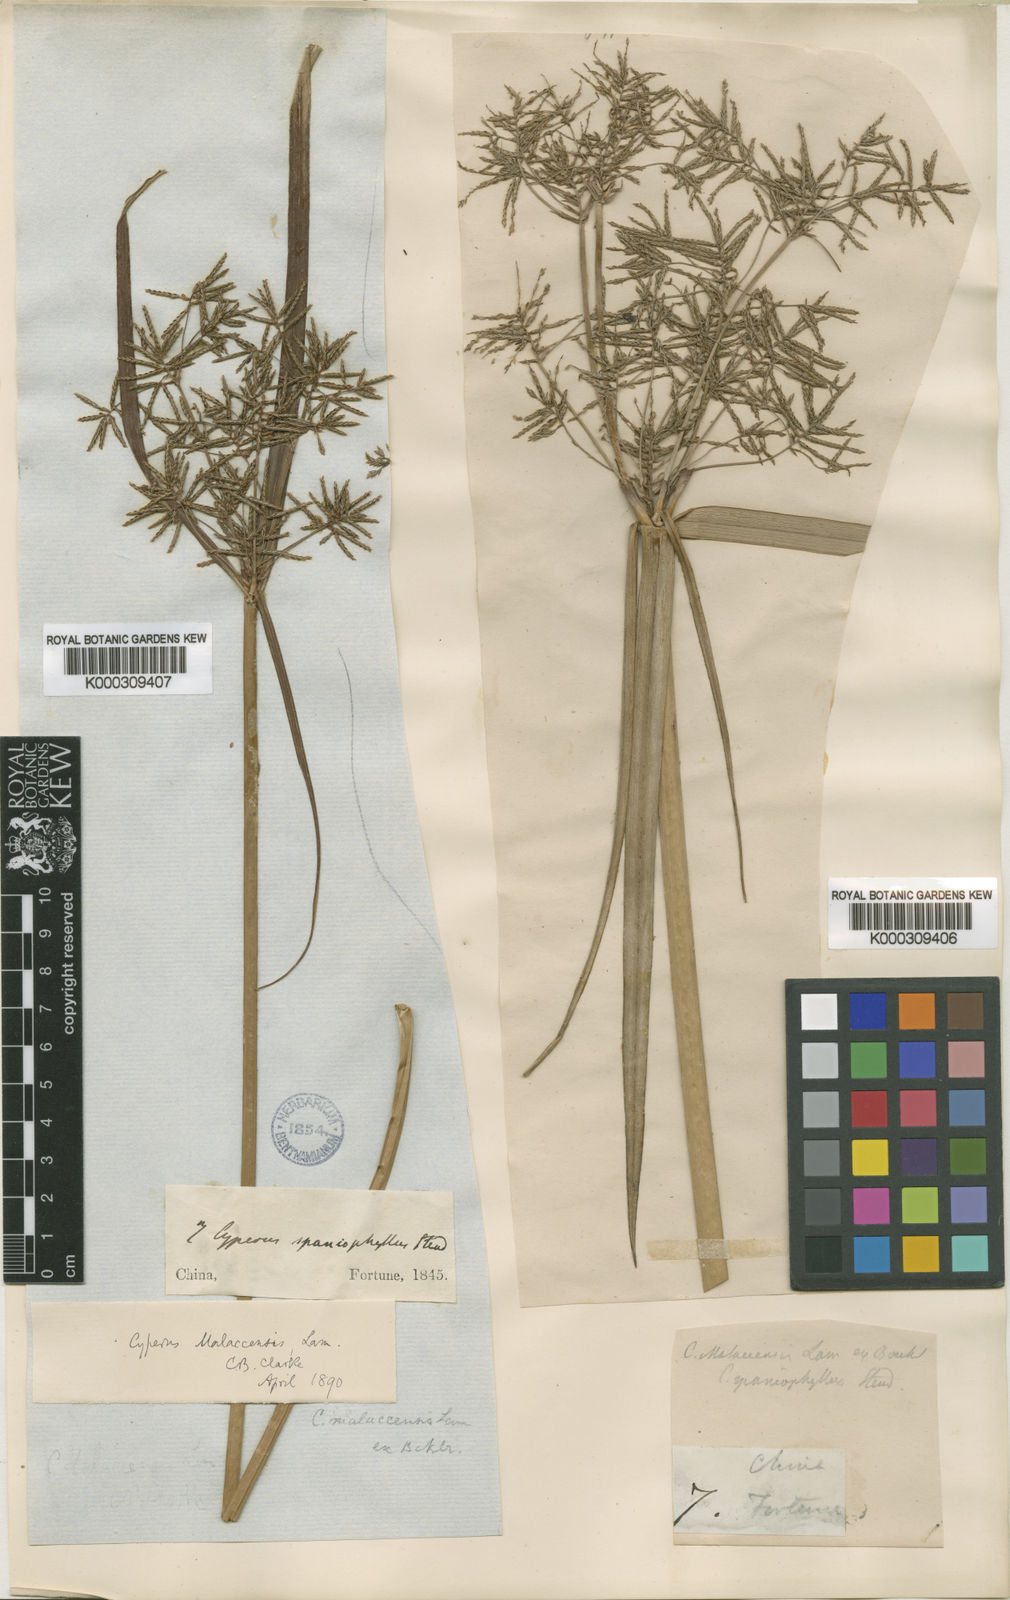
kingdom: Plantae
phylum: Tracheophyta
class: Liliopsida
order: Poales
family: Cyperaceae
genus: Cyperus
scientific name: Cyperus malaccensis
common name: Shichito matgrass
